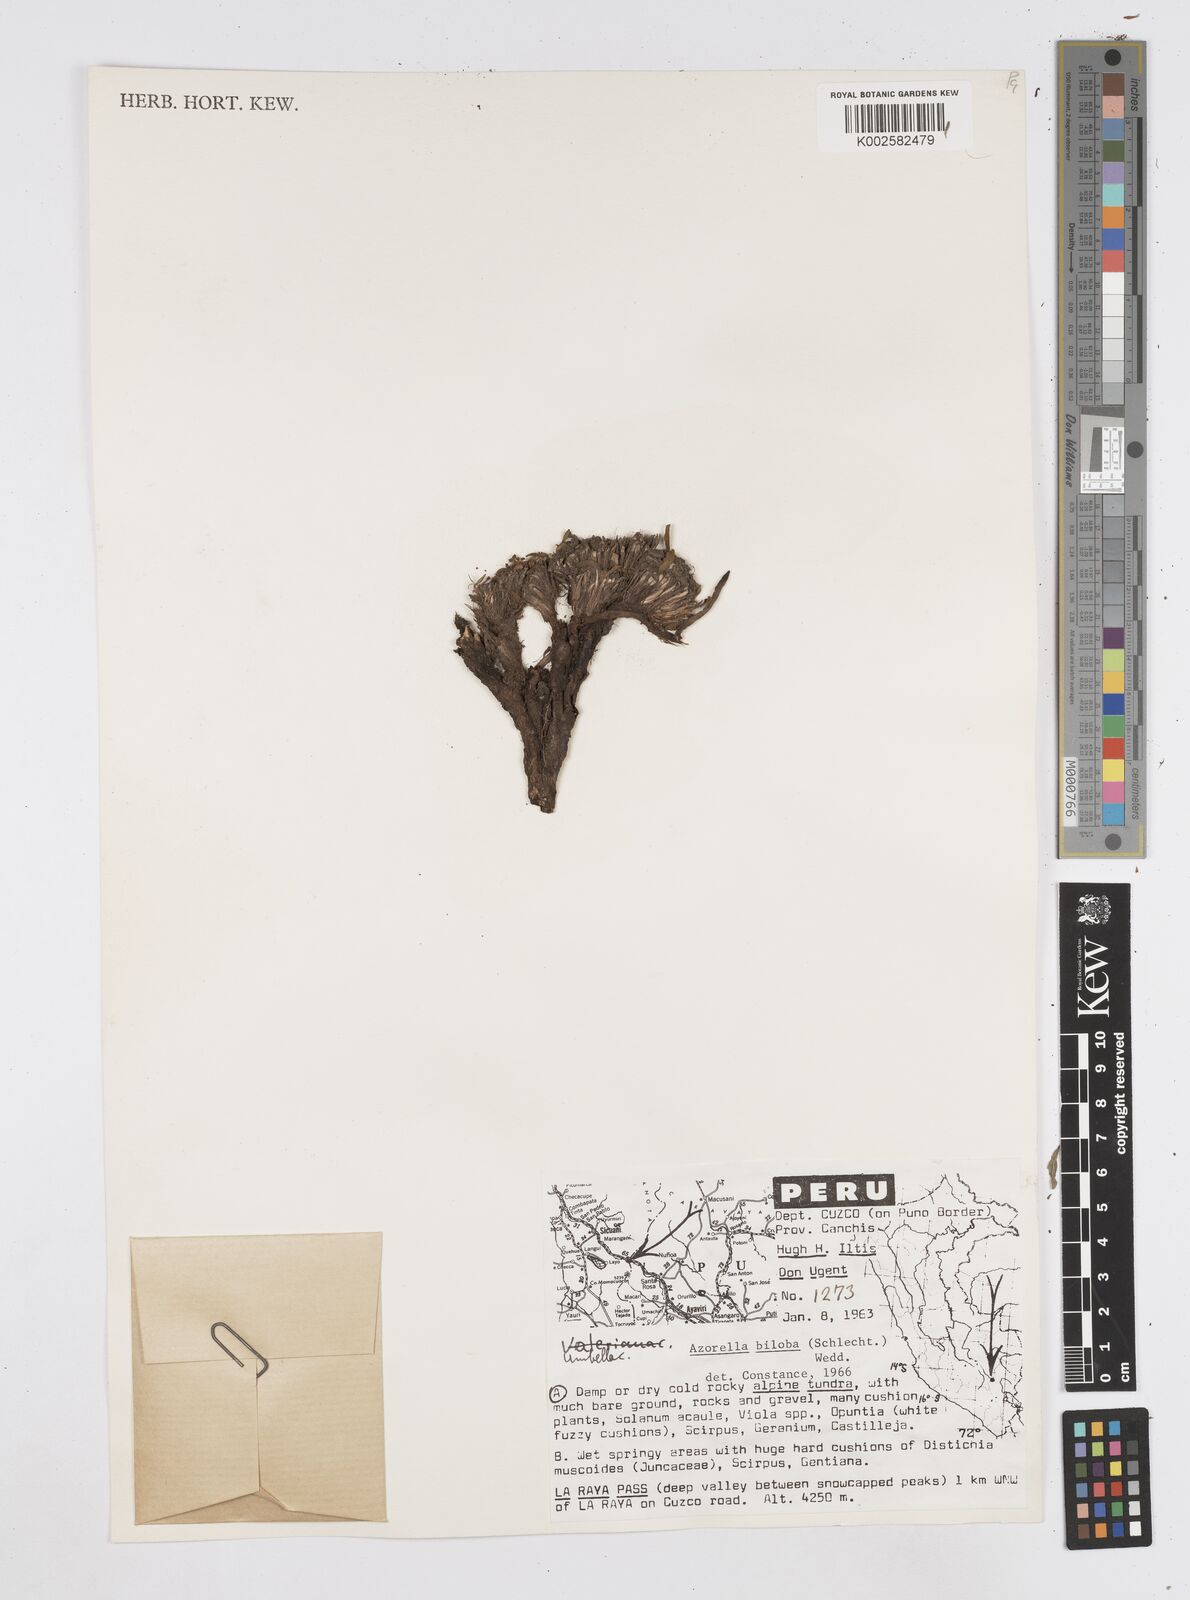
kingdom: Plantae
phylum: Tracheophyta
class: Magnoliopsida
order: Apiales
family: Apiaceae
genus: Azorella
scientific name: Azorella biloba
